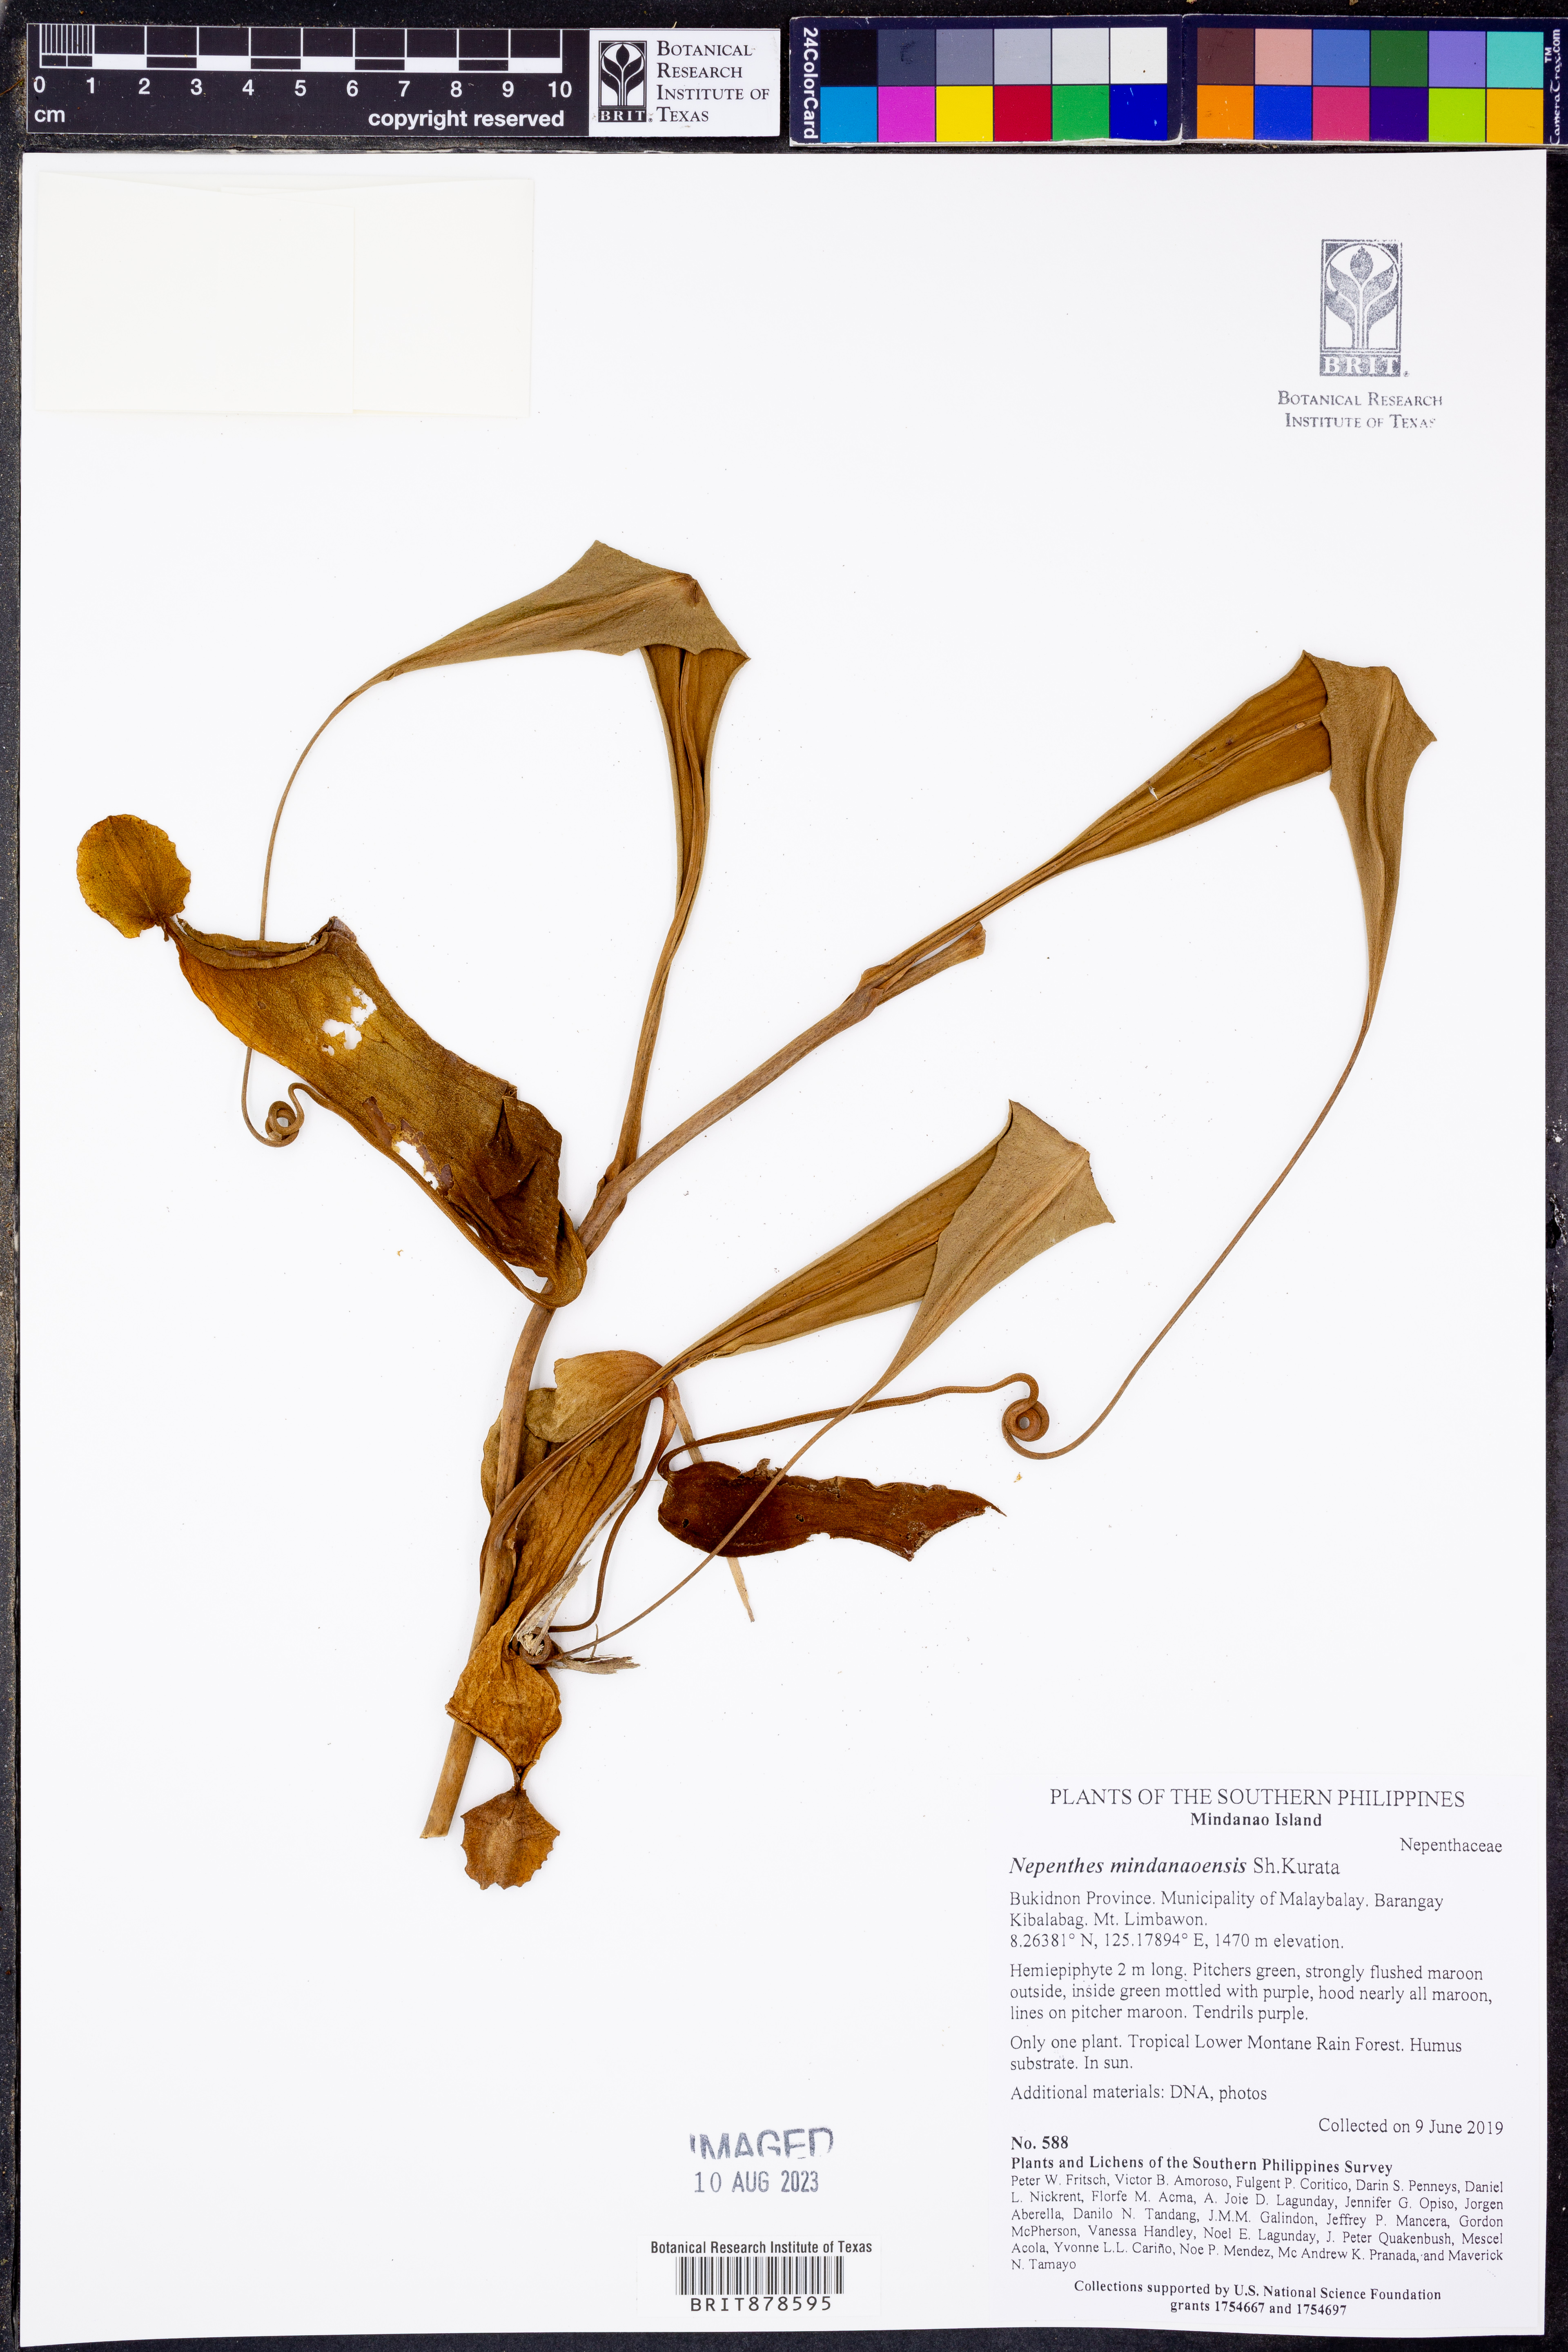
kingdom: Plantae
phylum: Tracheophyta
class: Magnoliopsida
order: Caryophyllales
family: Nepenthaceae
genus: Nepenthes
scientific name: Nepenthes mindanaoensis
